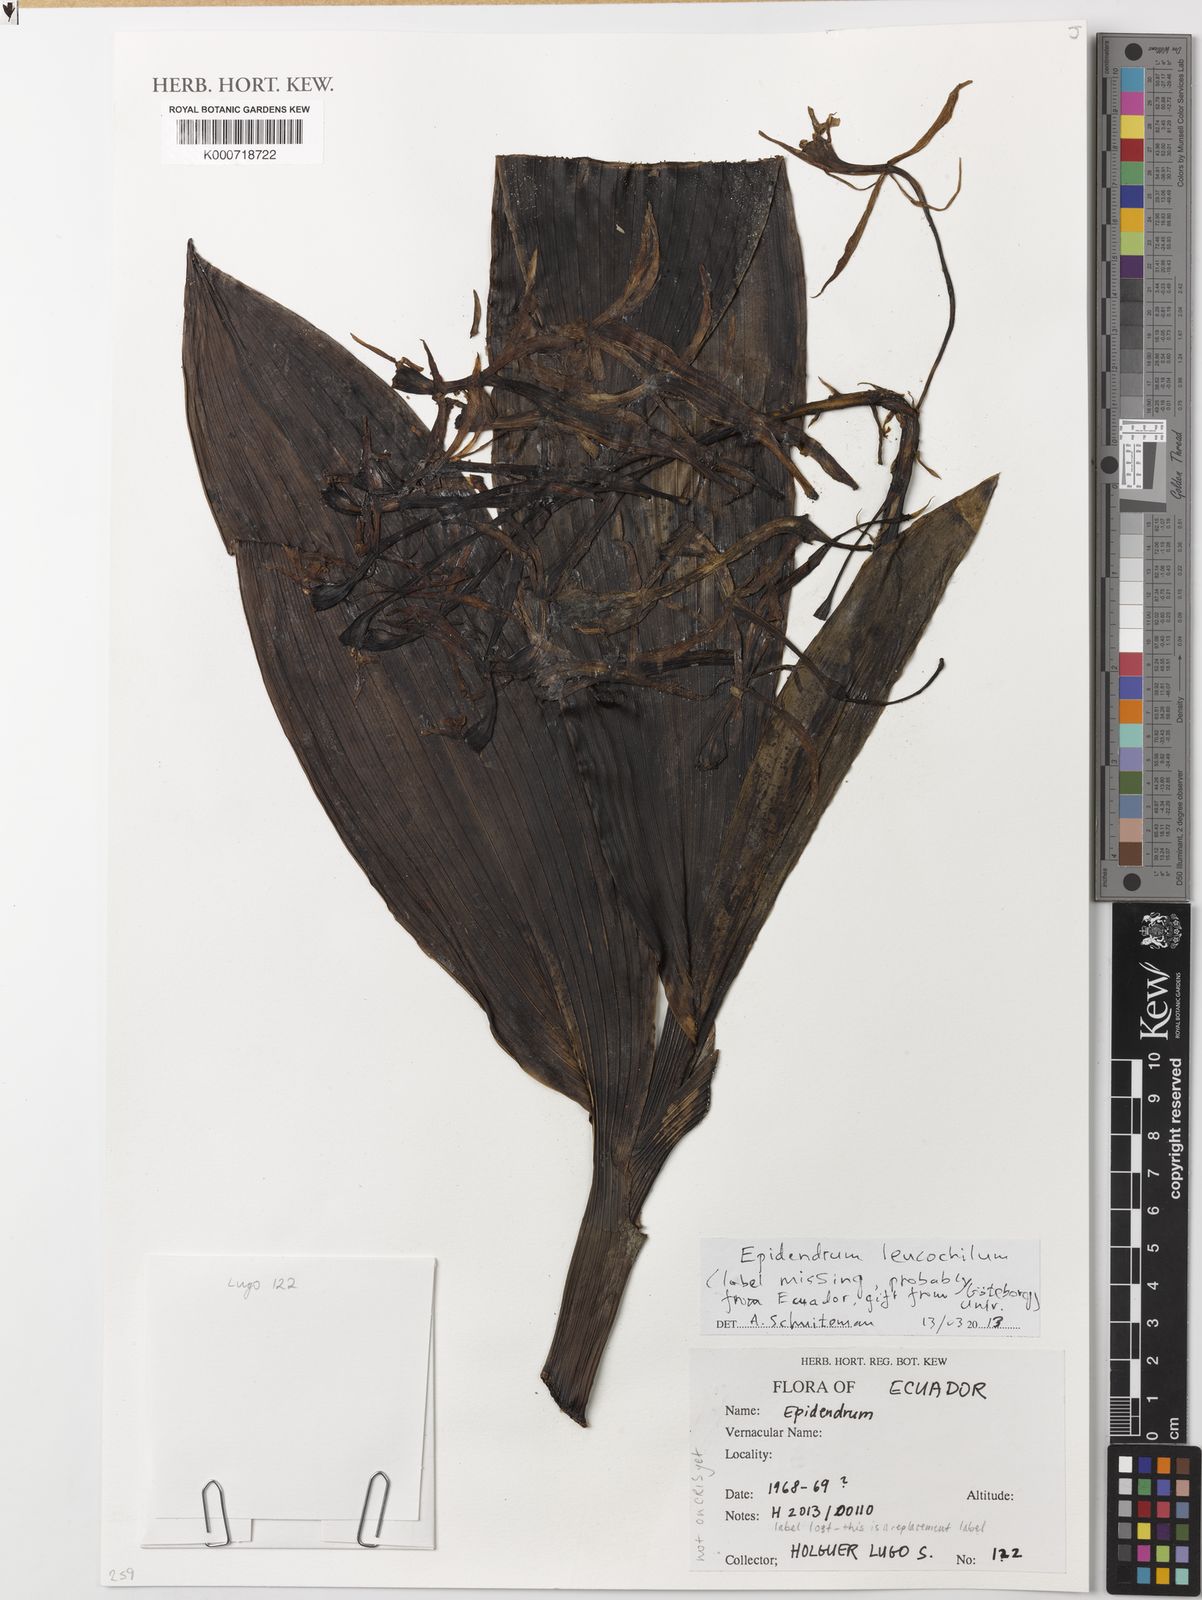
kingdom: Plantae
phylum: Tracheophyta
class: Liliopsida
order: Asparagales
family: Orchidaceae
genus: Epidendrum
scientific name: Epidendrum leucochilum
